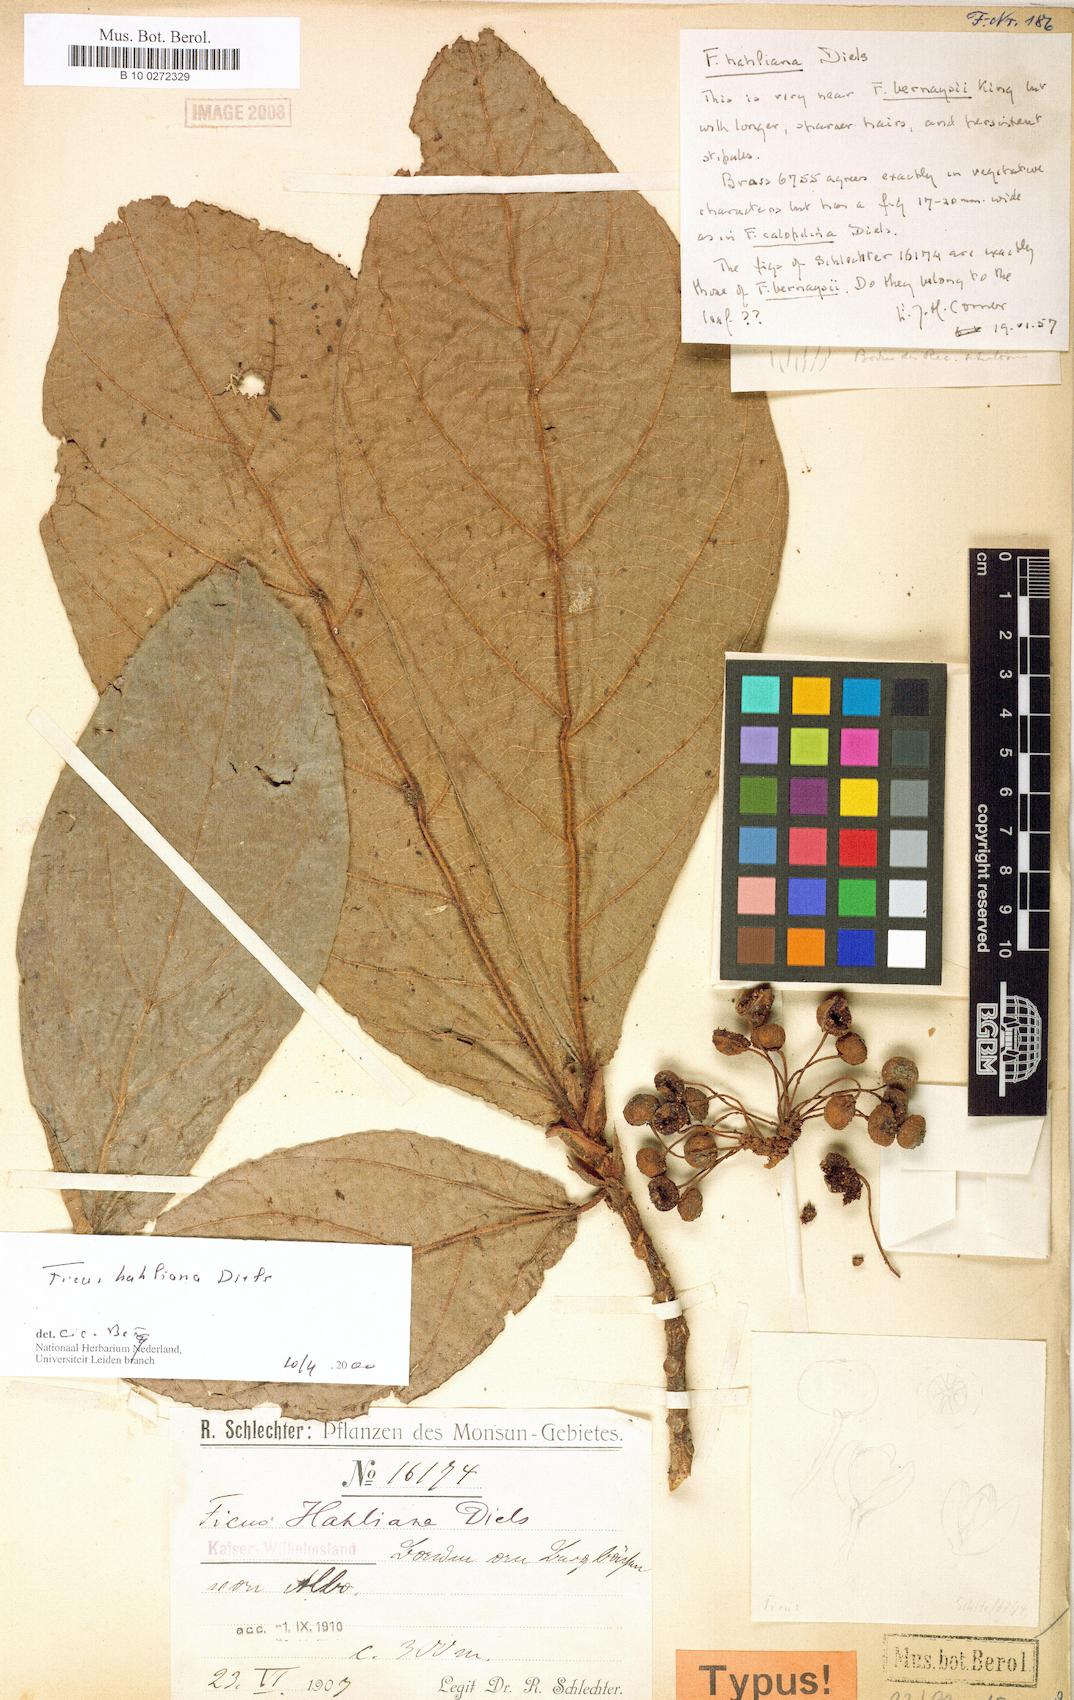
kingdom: Plantae
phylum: Tracheophyta
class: Magnoliopsida
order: Rosales
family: Moraceae
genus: Ficus
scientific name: Ficus hahliana
